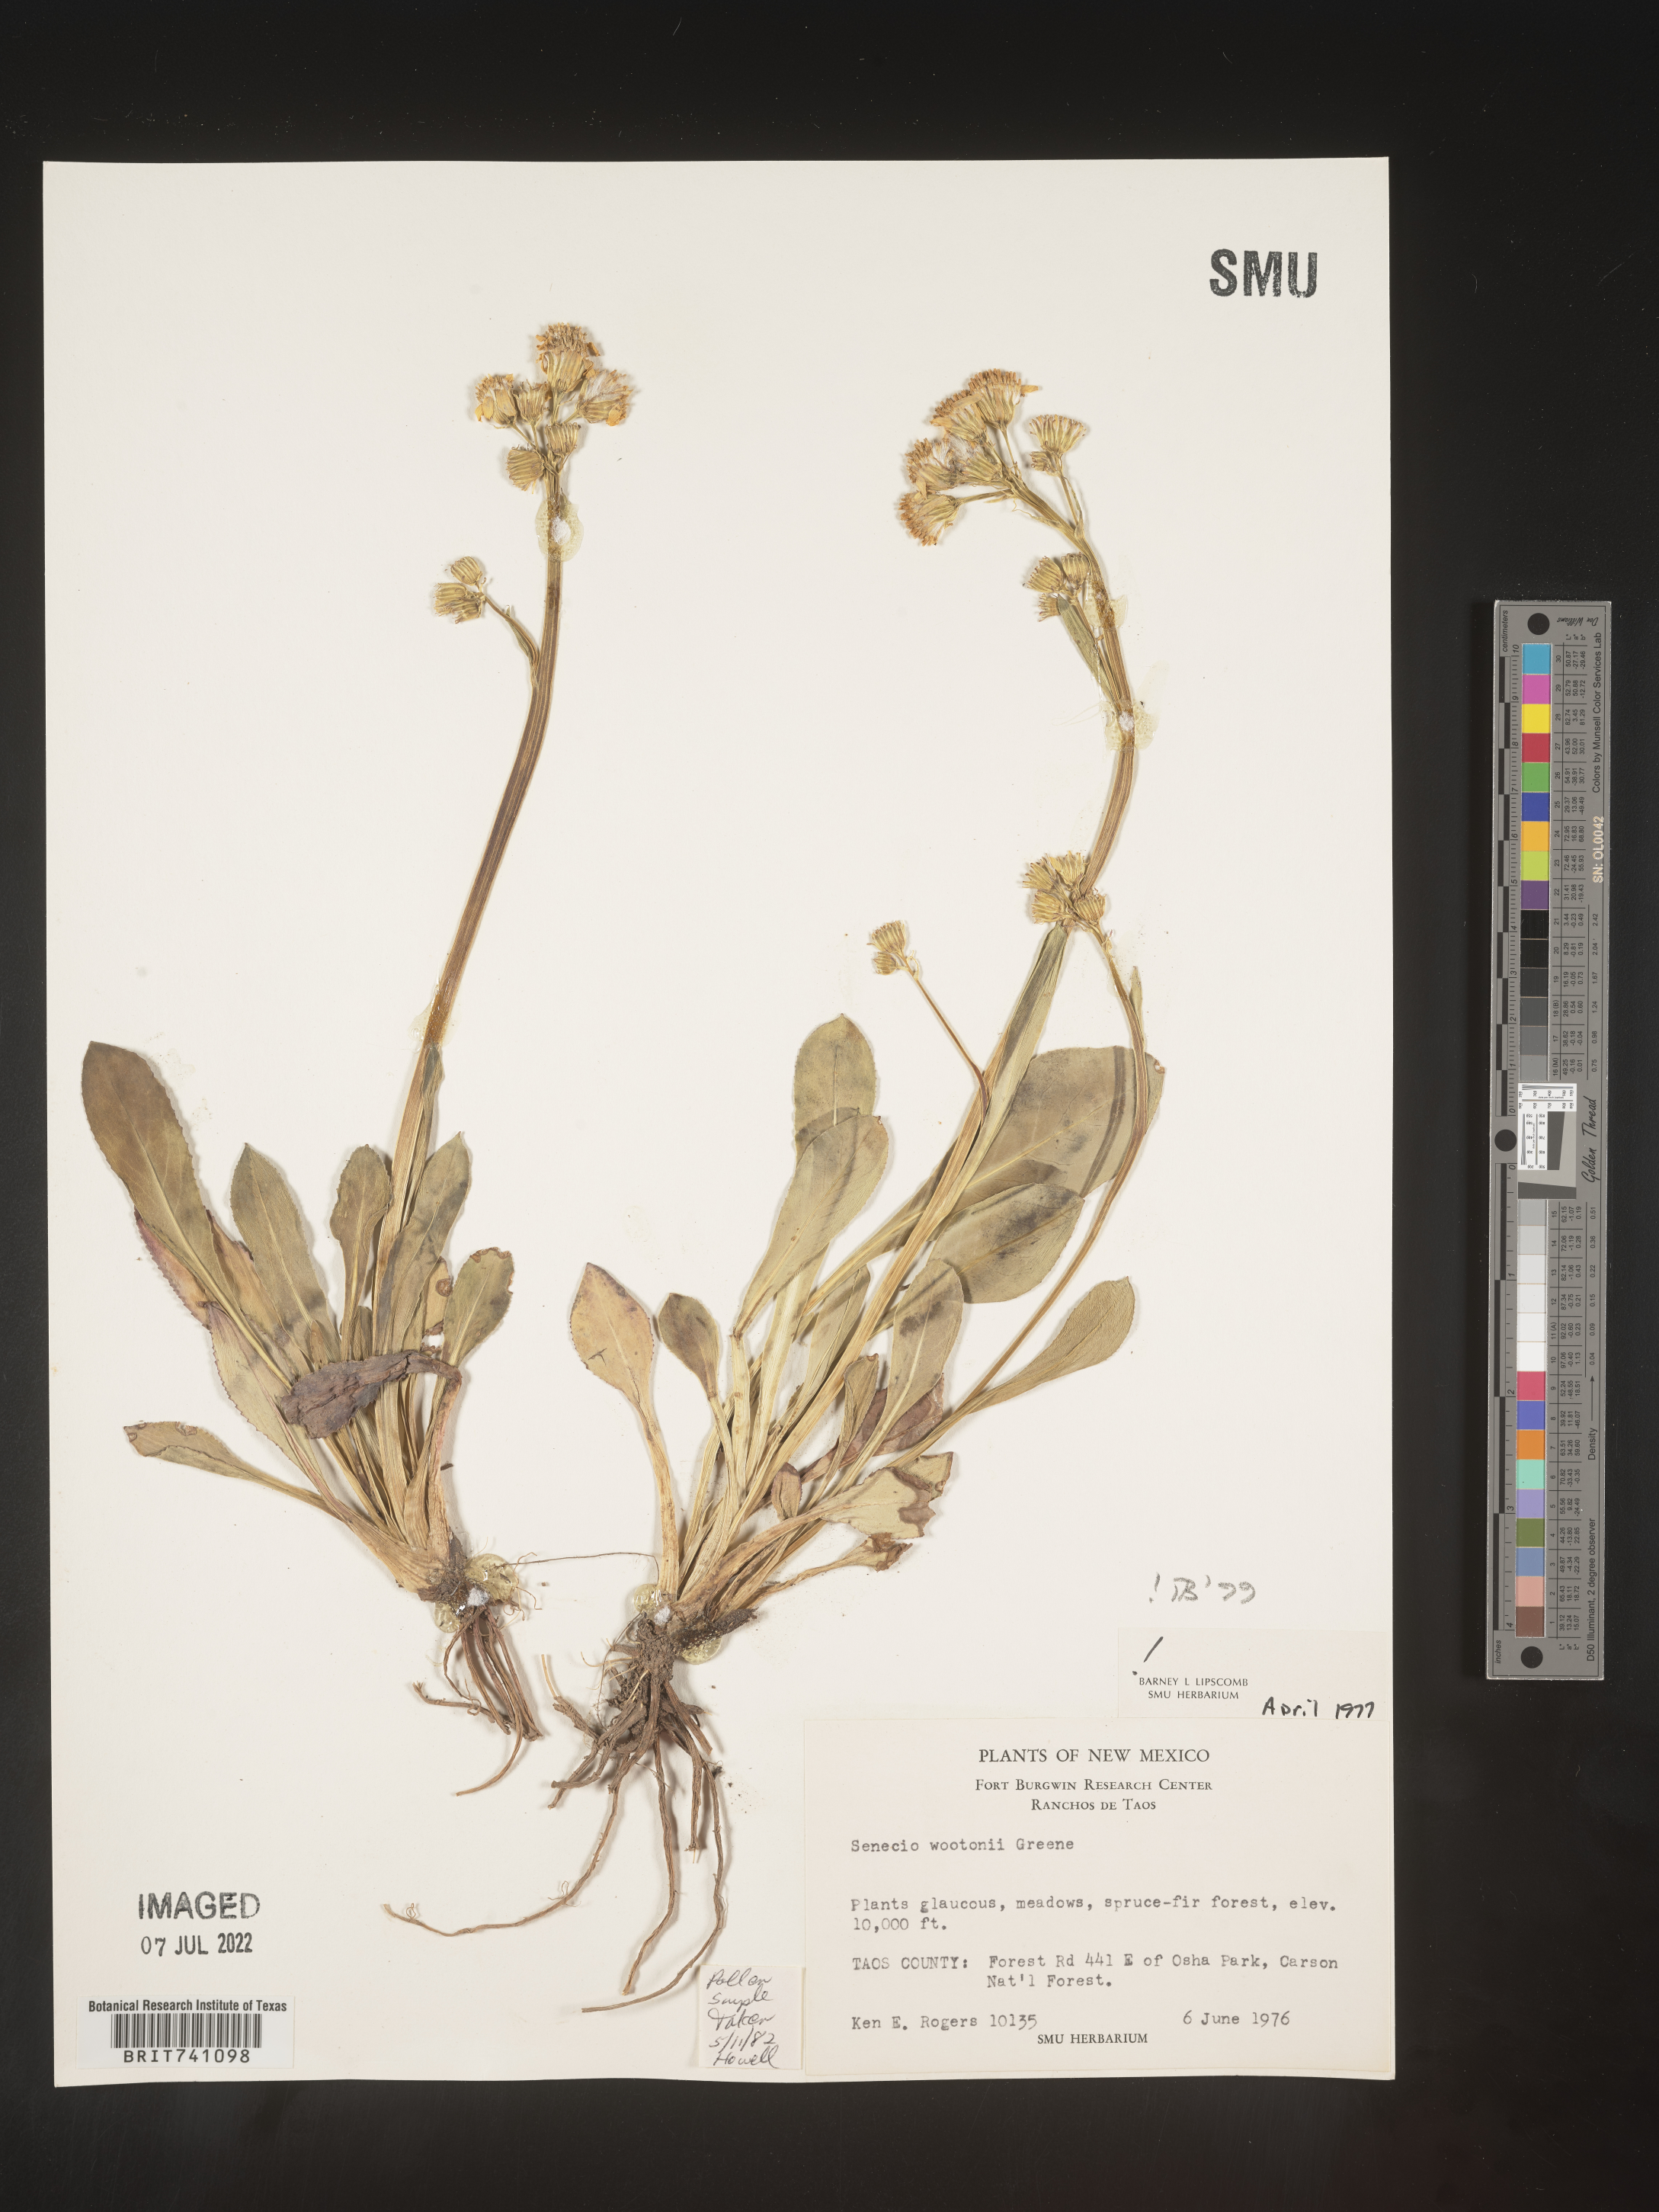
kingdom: Plantae
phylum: Tracheophyta
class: Magnoliopsida
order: Asterales
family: Asteraceae
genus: Senecio
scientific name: Senecio wootonii
